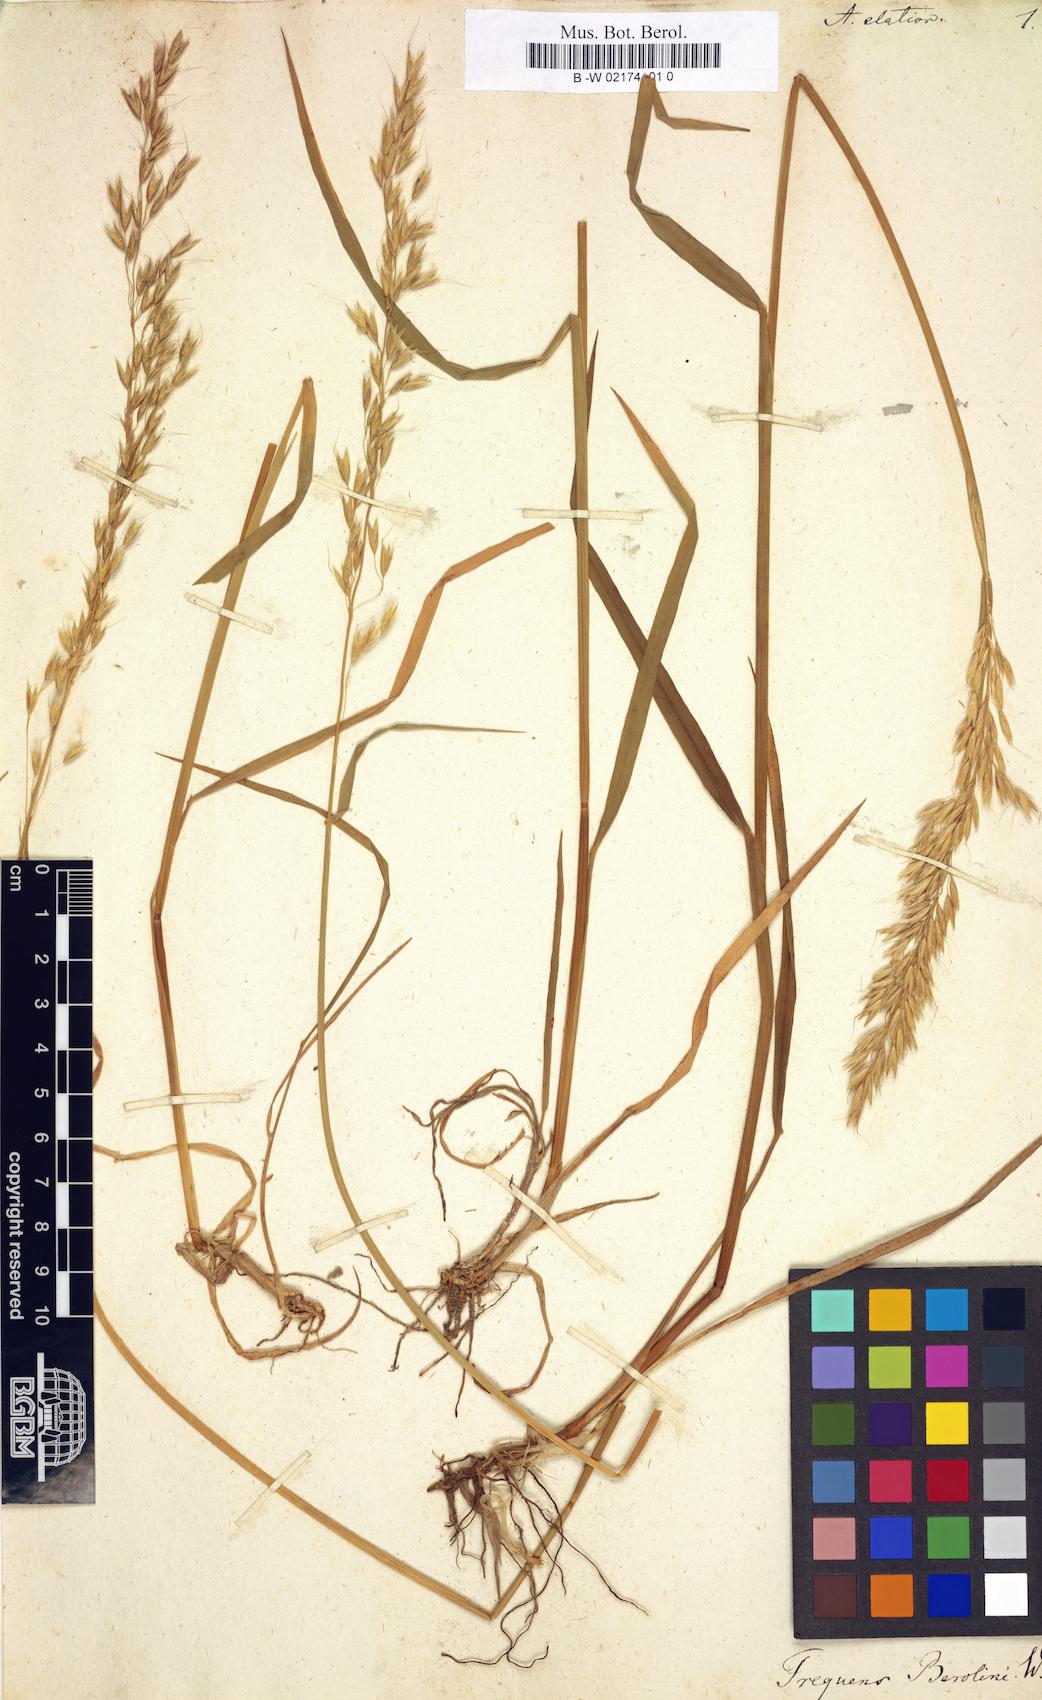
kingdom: Plantae
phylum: Tracheophyta
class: Liliopsida
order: Poales
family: Poaceae
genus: Arrhenatherum
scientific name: Arrhenatherum elatius
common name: Tall oatgrass
